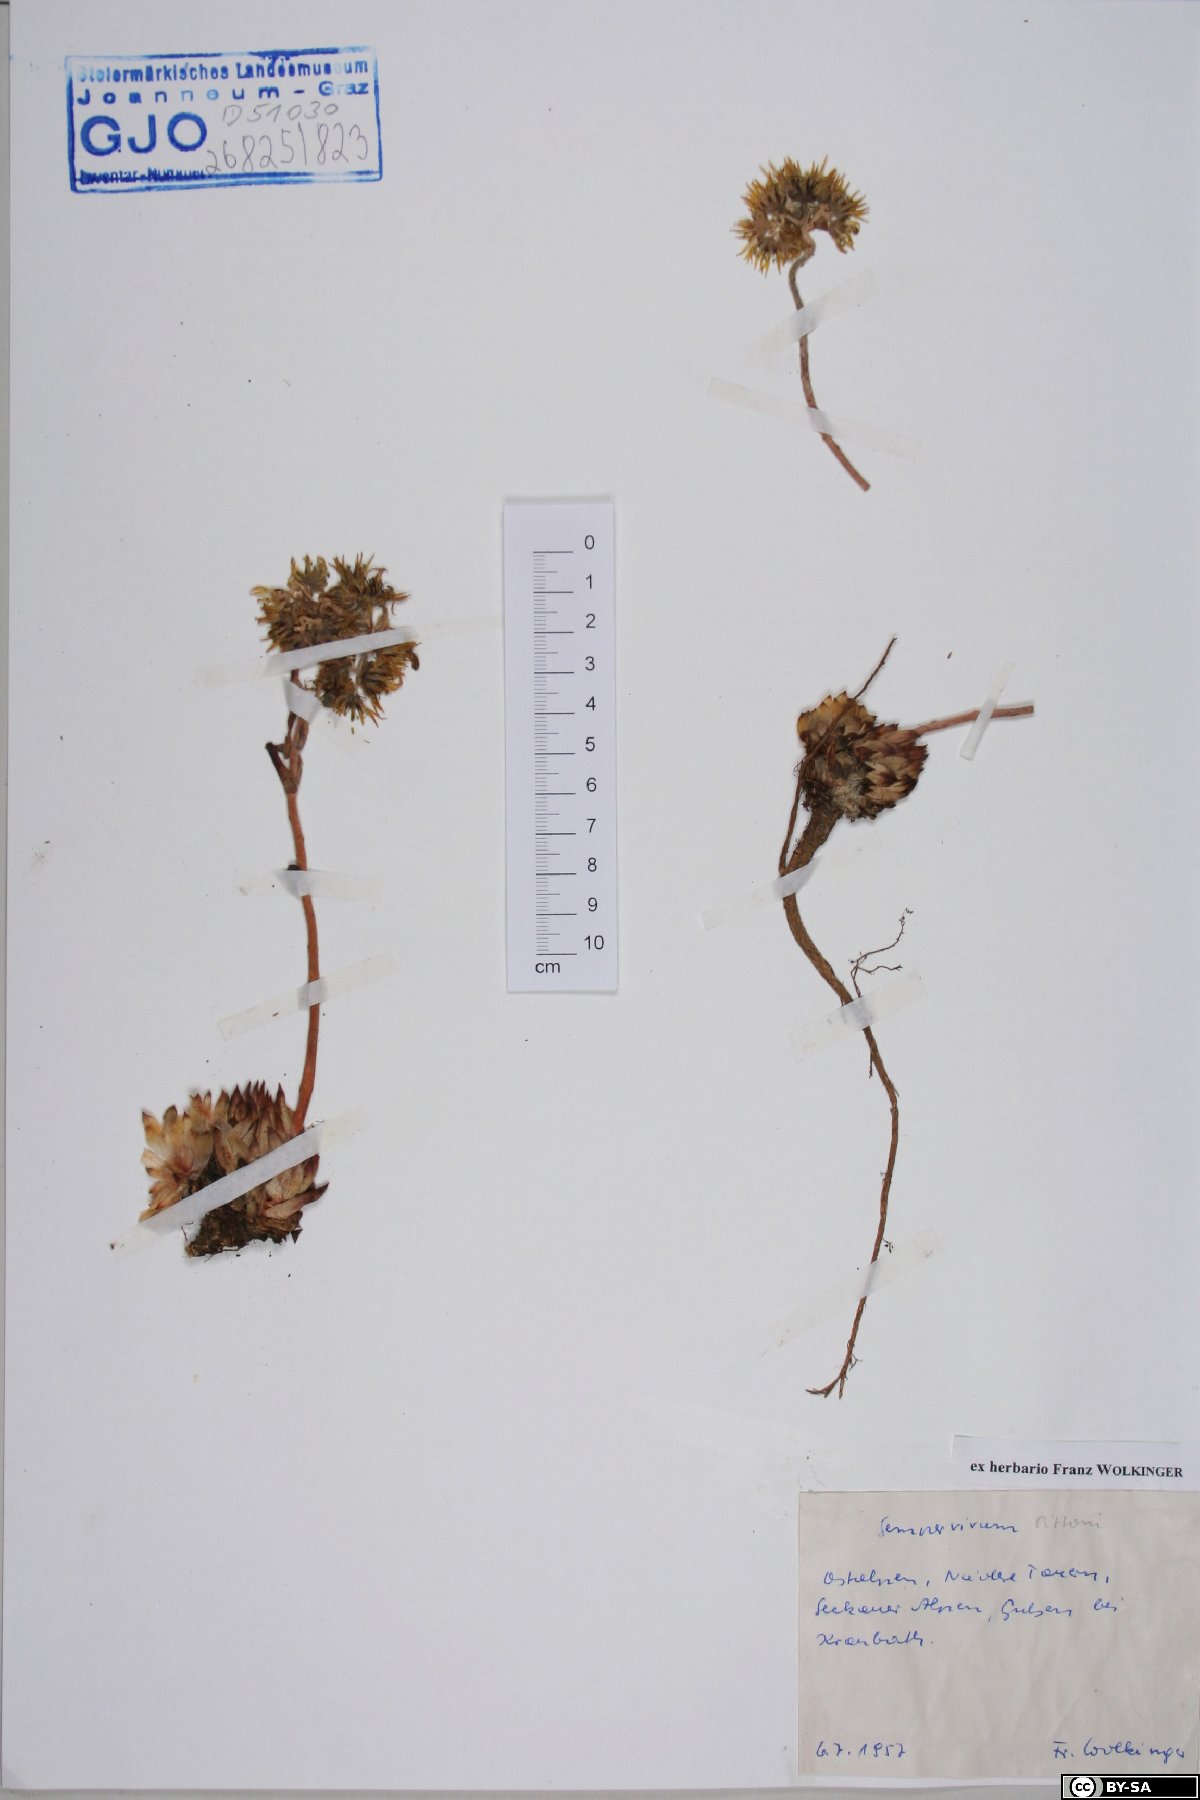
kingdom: Plantae
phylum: Tracheophyta
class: Magnoliopsida
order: Saxifragales
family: Crassulaceae
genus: Sempervivum
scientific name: Sempervivum pittonii
